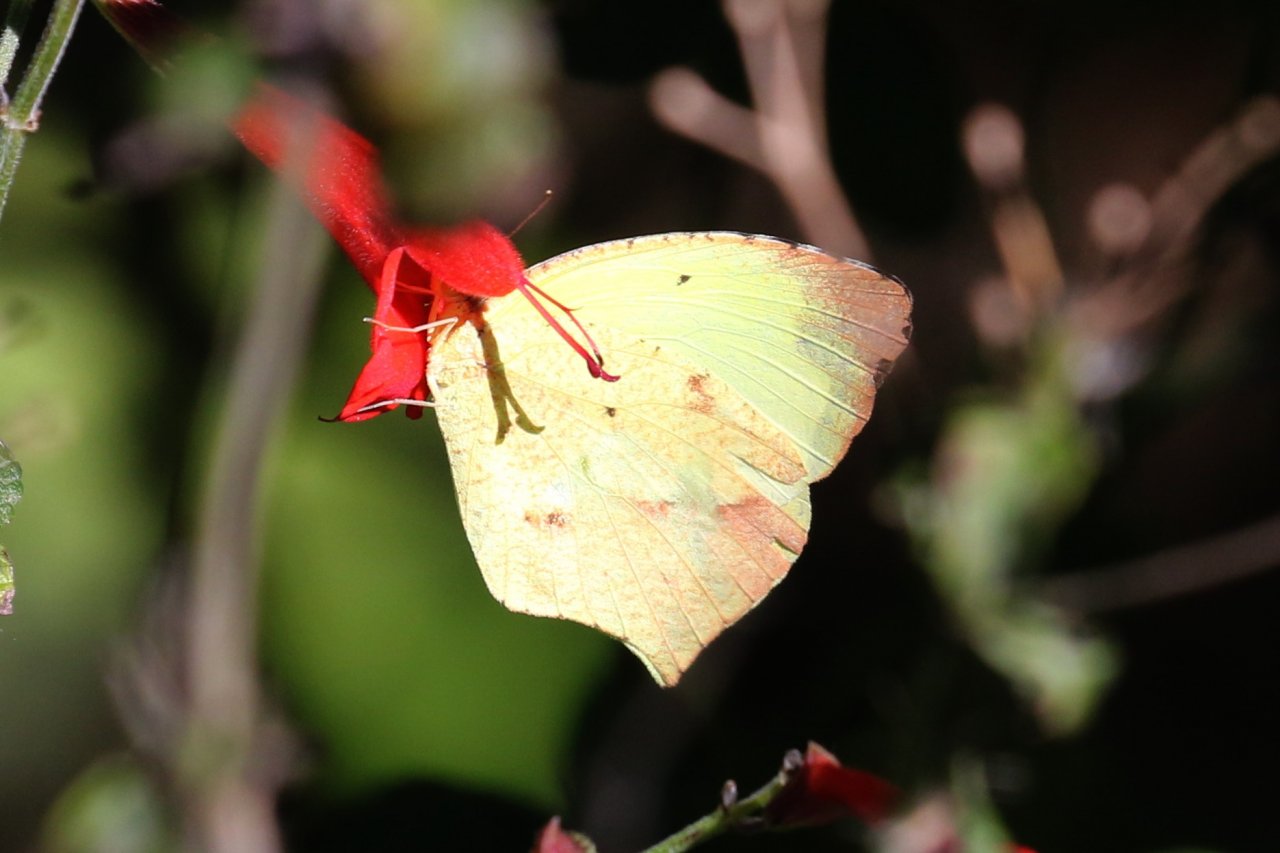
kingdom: Animalia
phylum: Arthropoda
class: Insecta
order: Lepidoptera
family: Pieridae
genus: Eurema
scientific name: Eurema boisduvaliana
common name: Boisduval's Yellow
